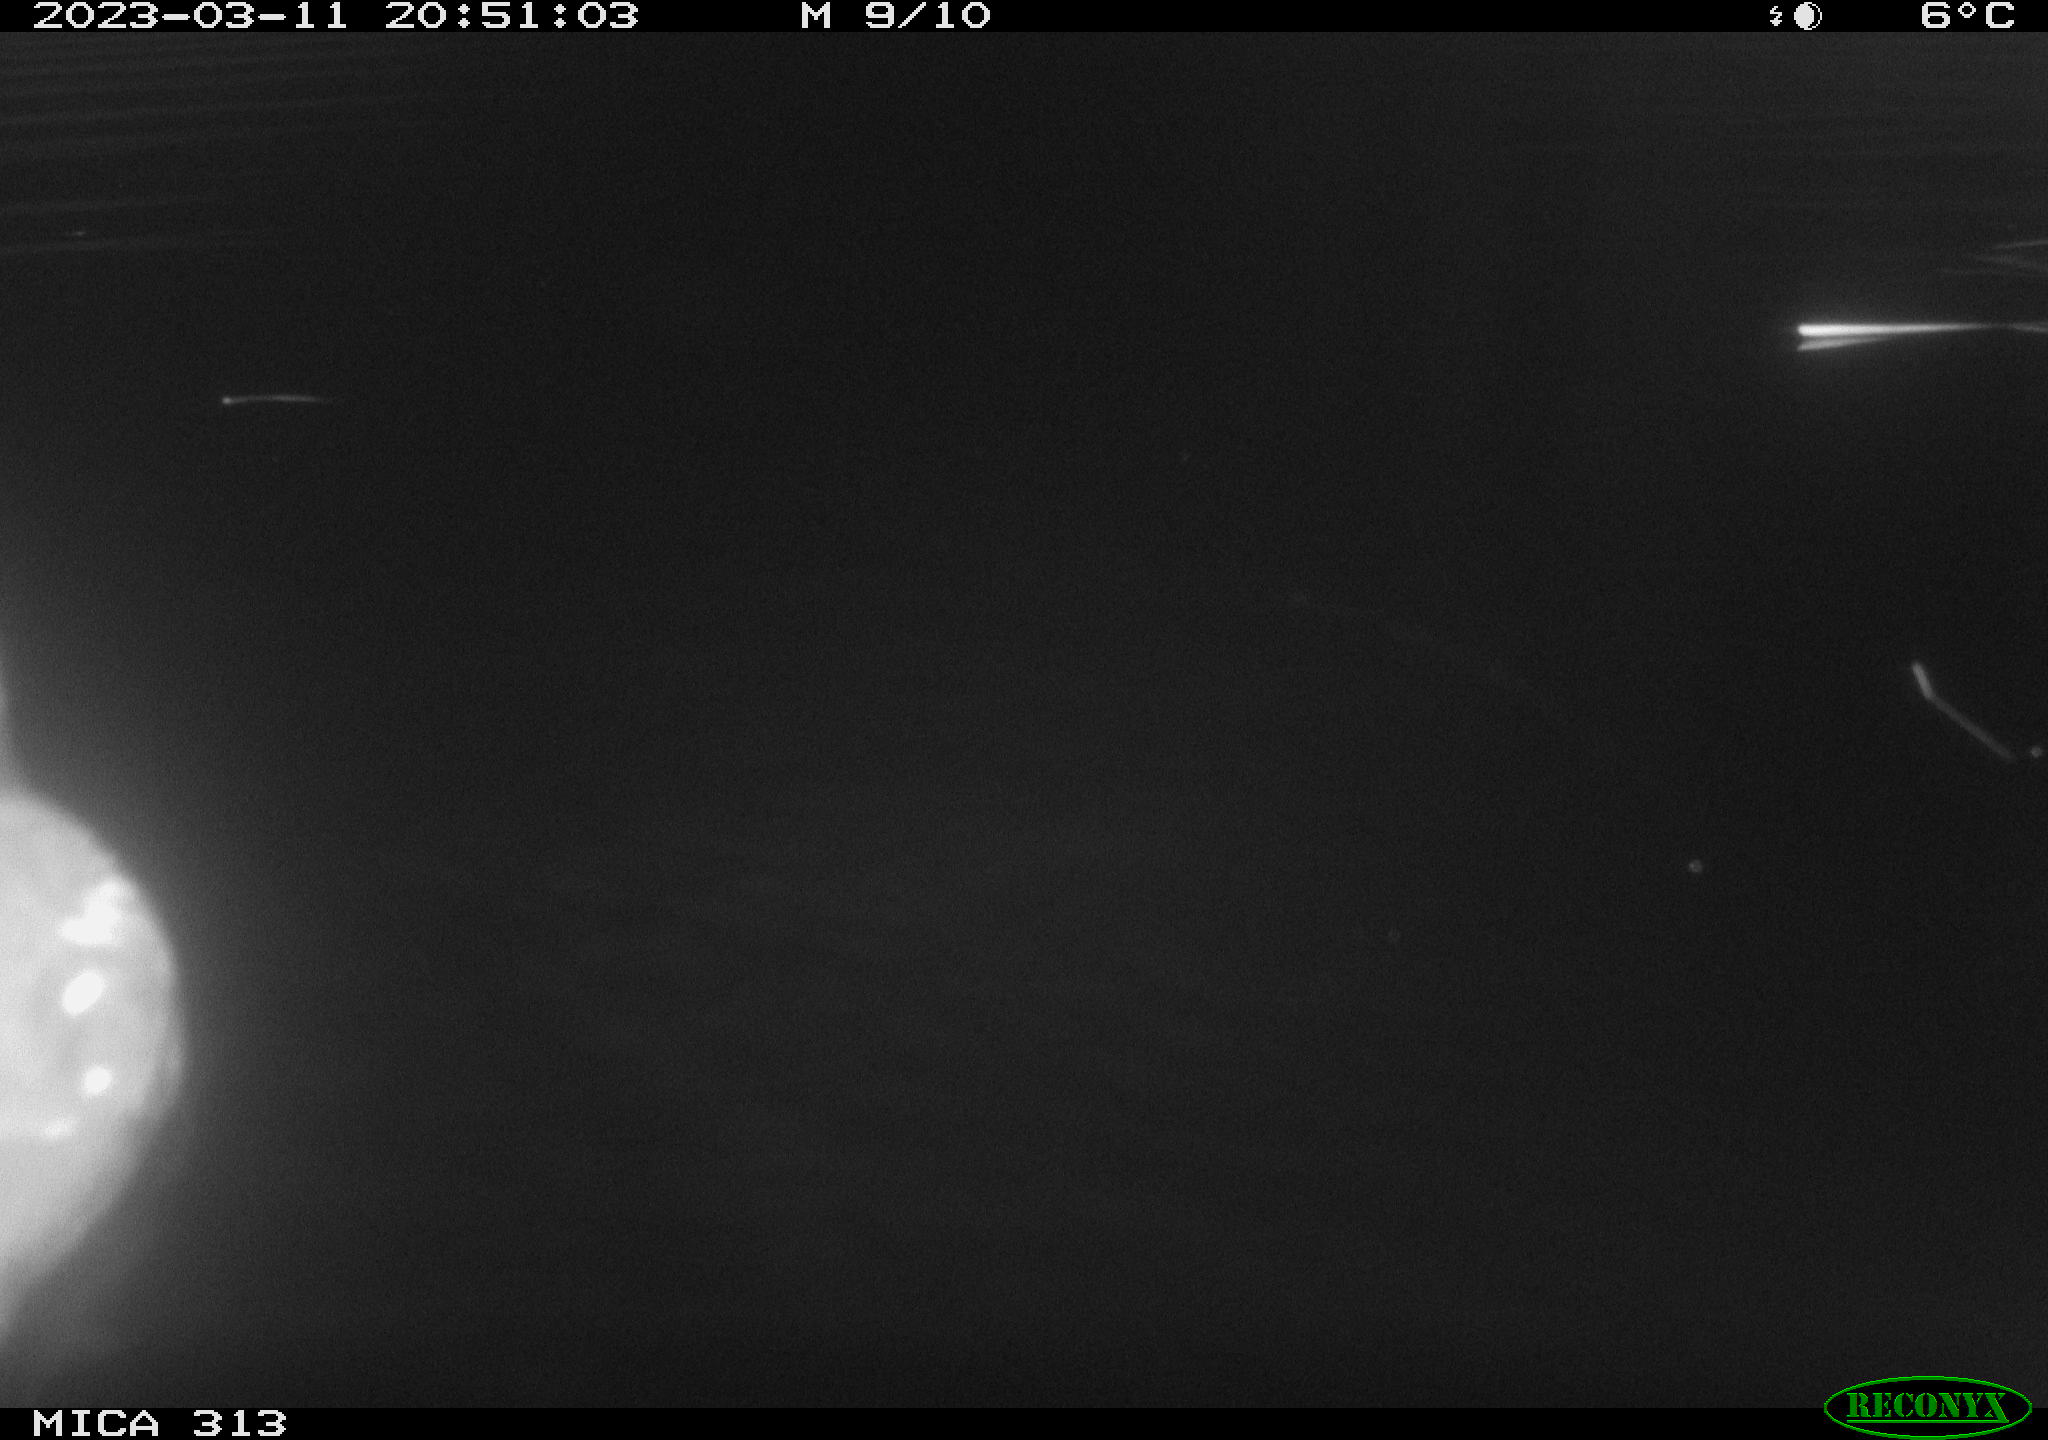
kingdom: Animalia
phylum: Chordata
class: Aves
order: Anseriformes
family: Anatidae
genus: Anas
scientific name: Anas
